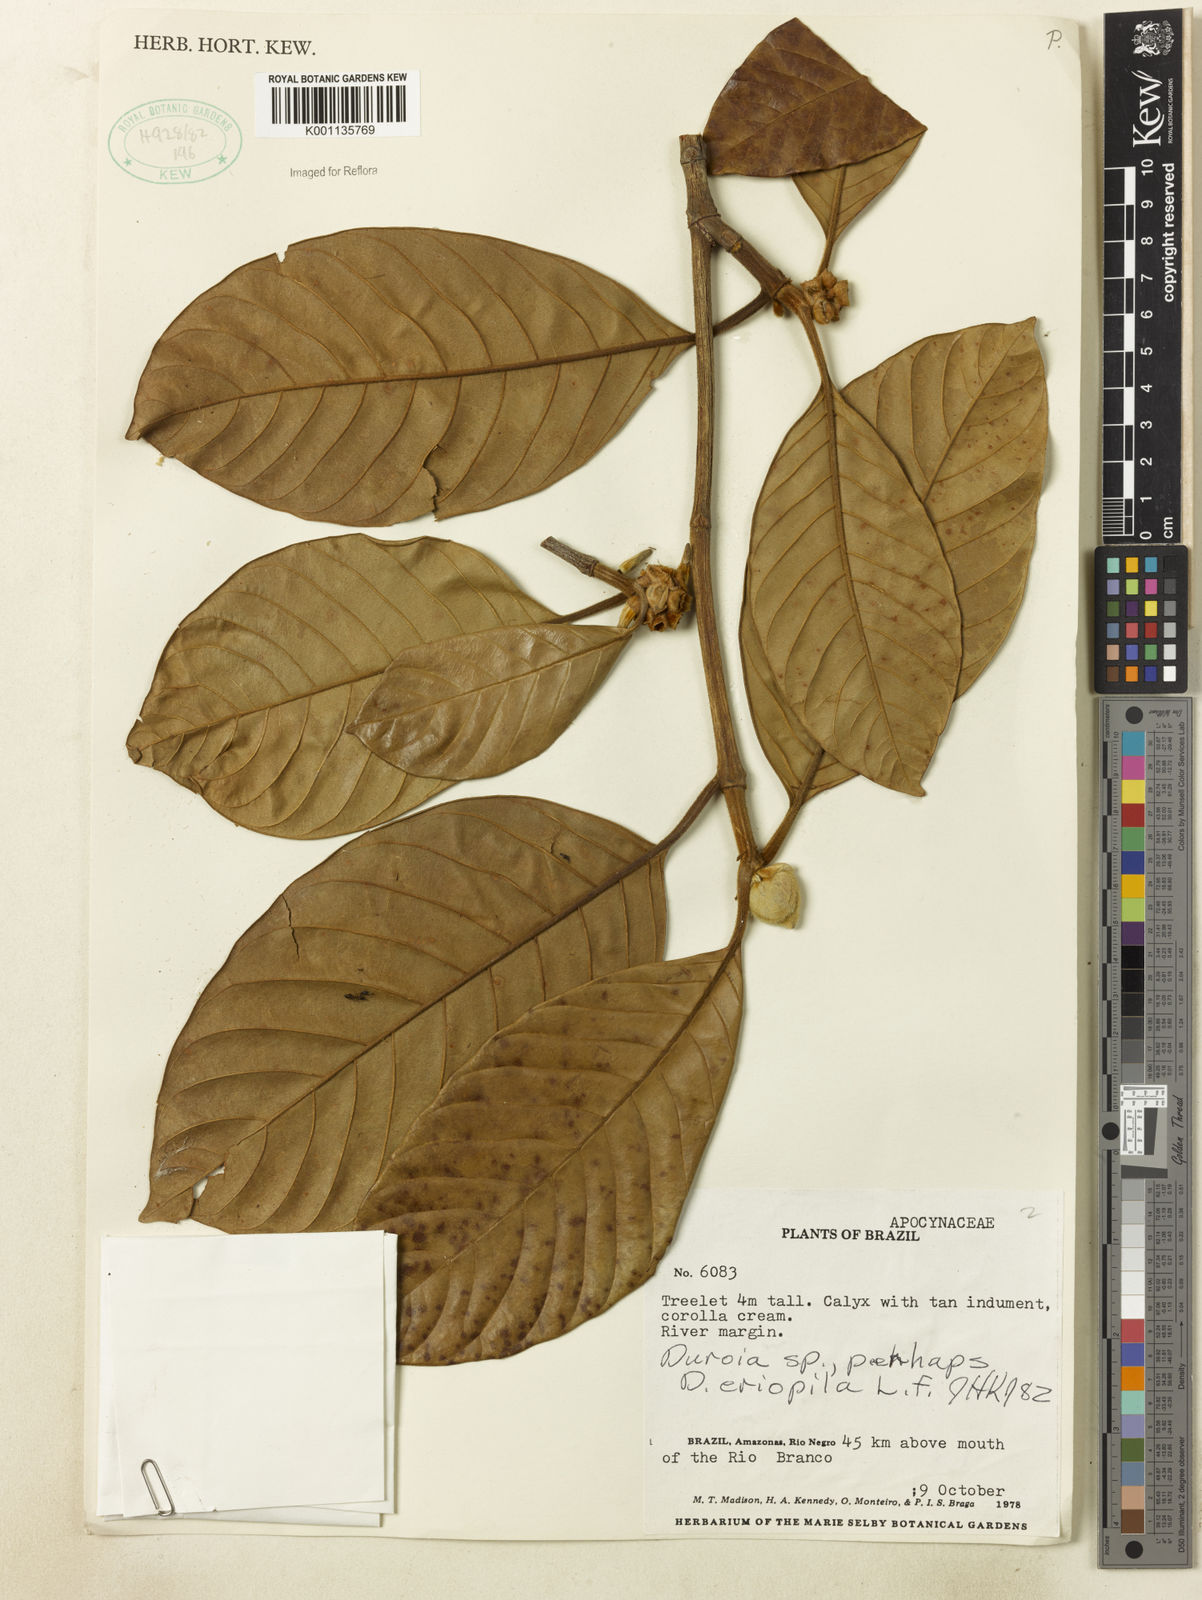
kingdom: Plantae
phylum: Tracheophyta
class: Magnoliopsida
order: Gentianales
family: Rubiaceae
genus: Duroia
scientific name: Duroia eriopila
